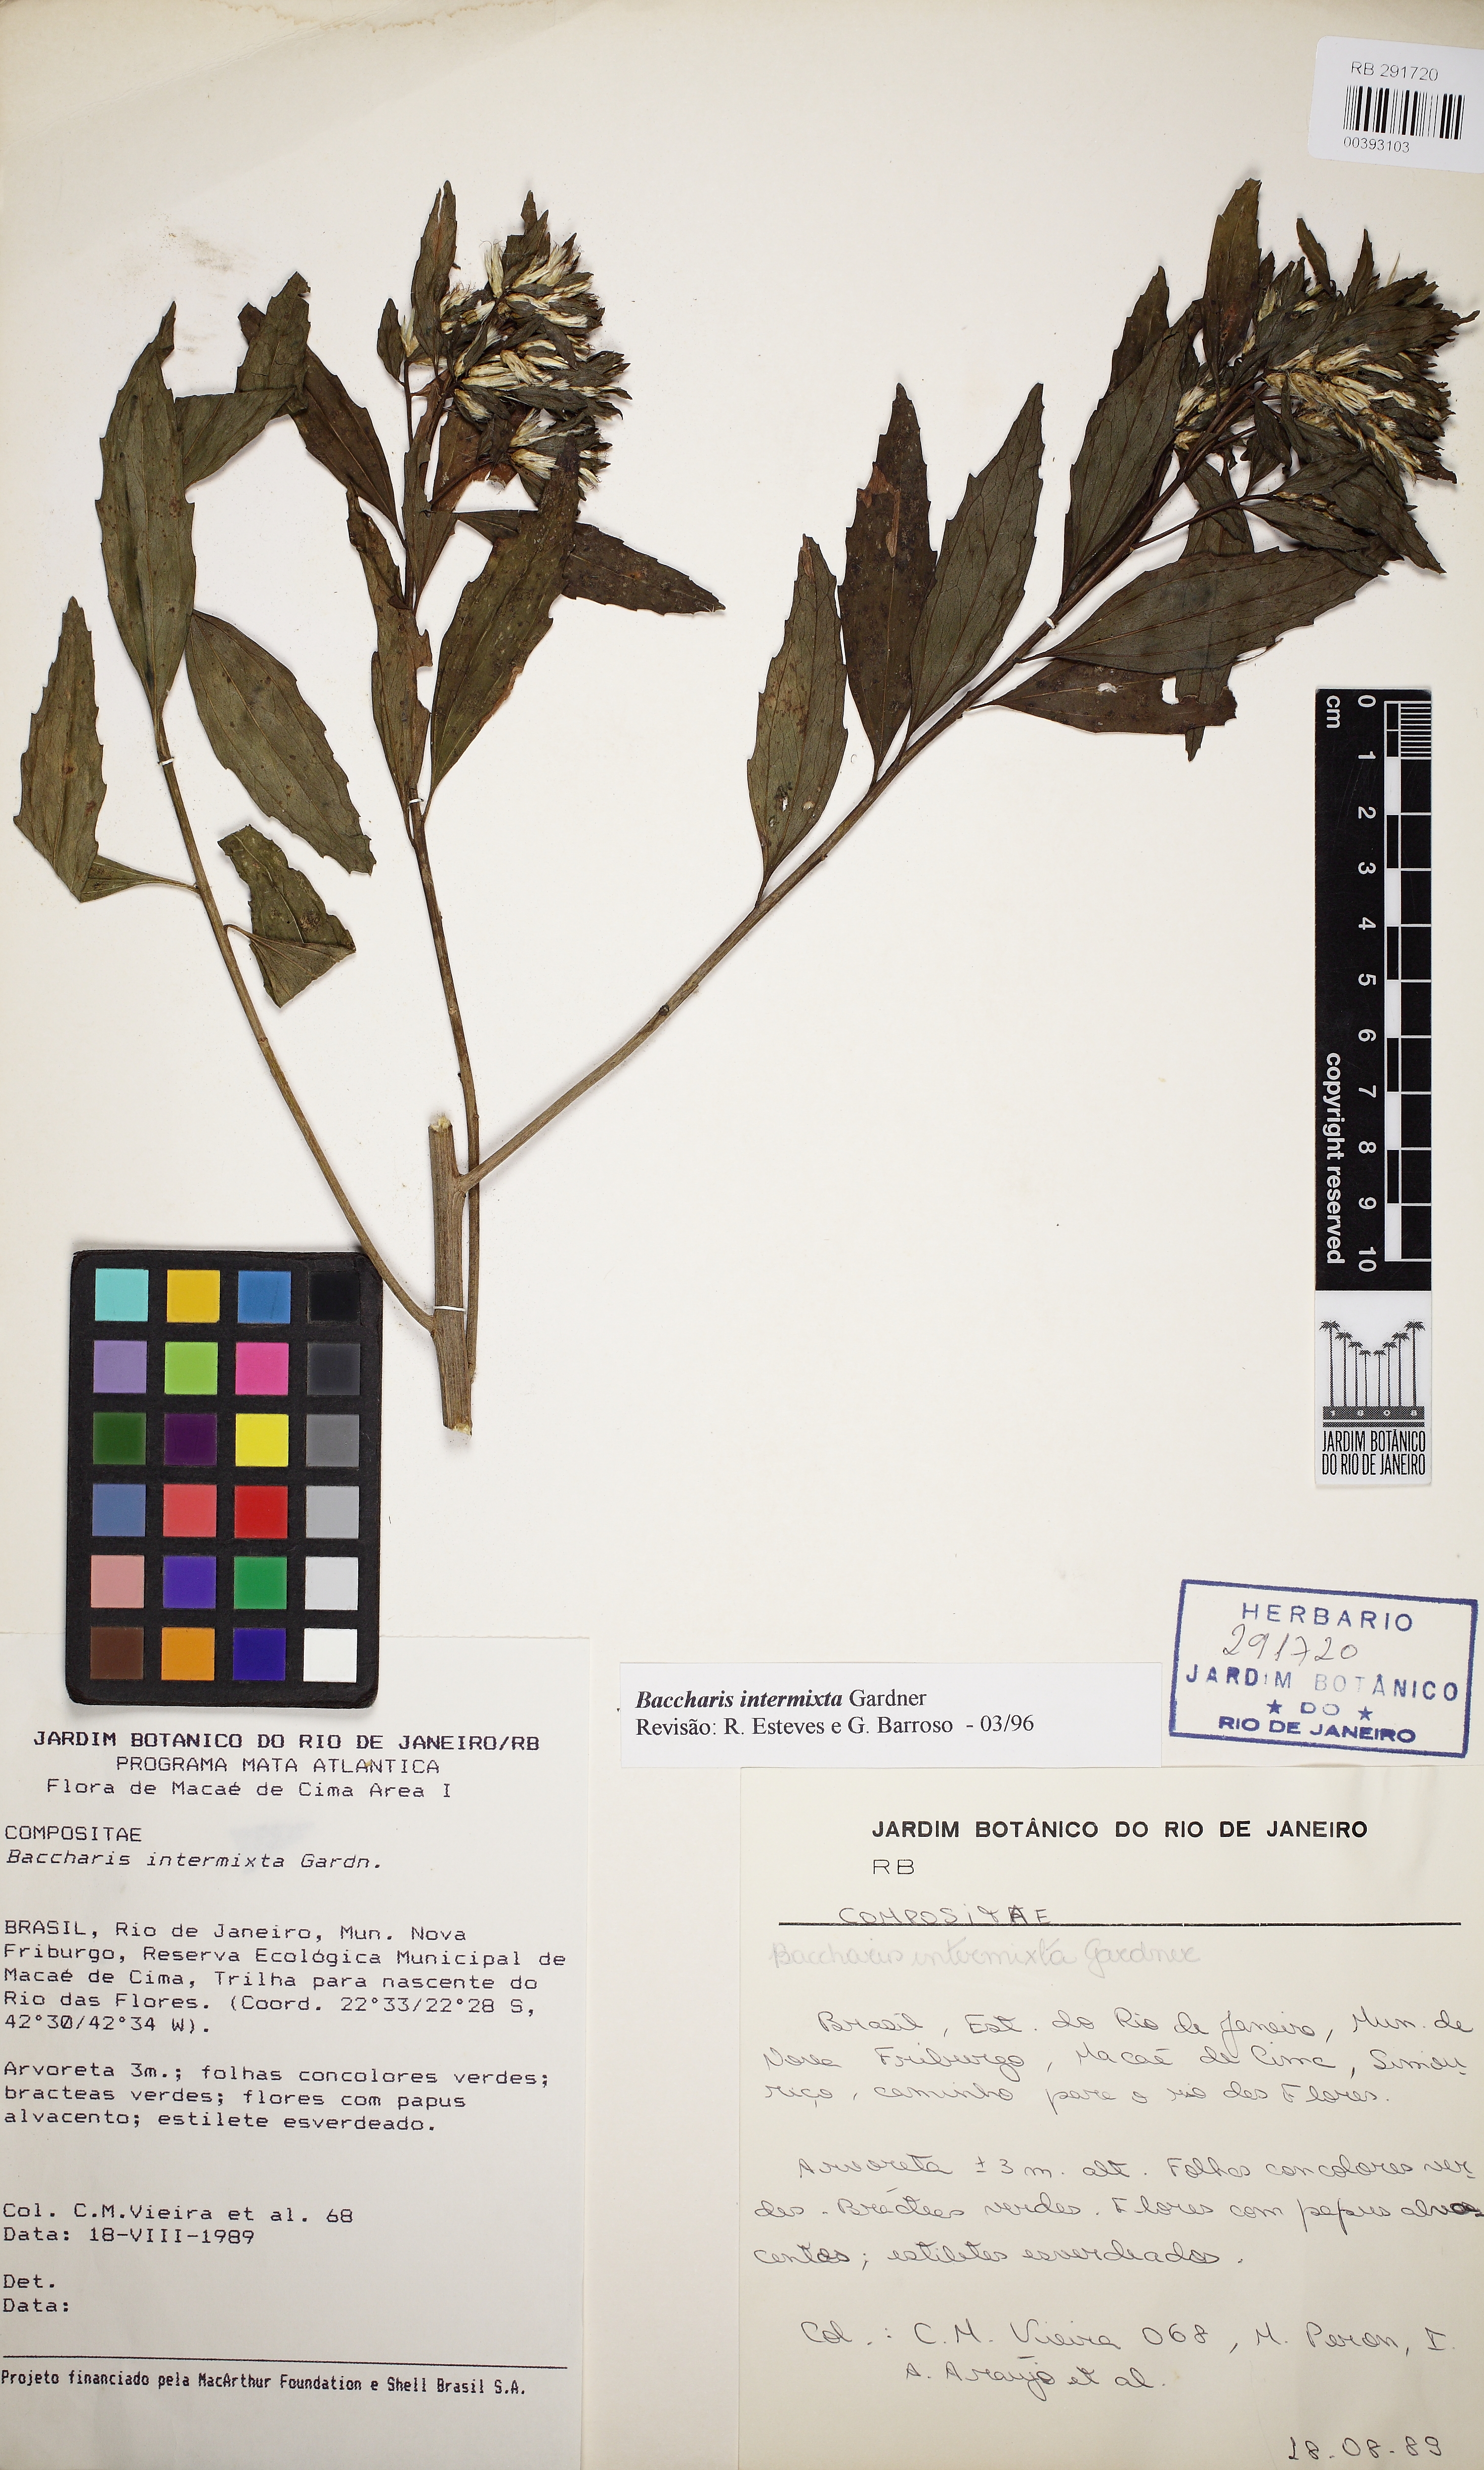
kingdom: Plantae
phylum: Tracheophyta
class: Magnoliopsida
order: Asterales
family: Asteraceae
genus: Baccharis
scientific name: Baccharis intermixta
